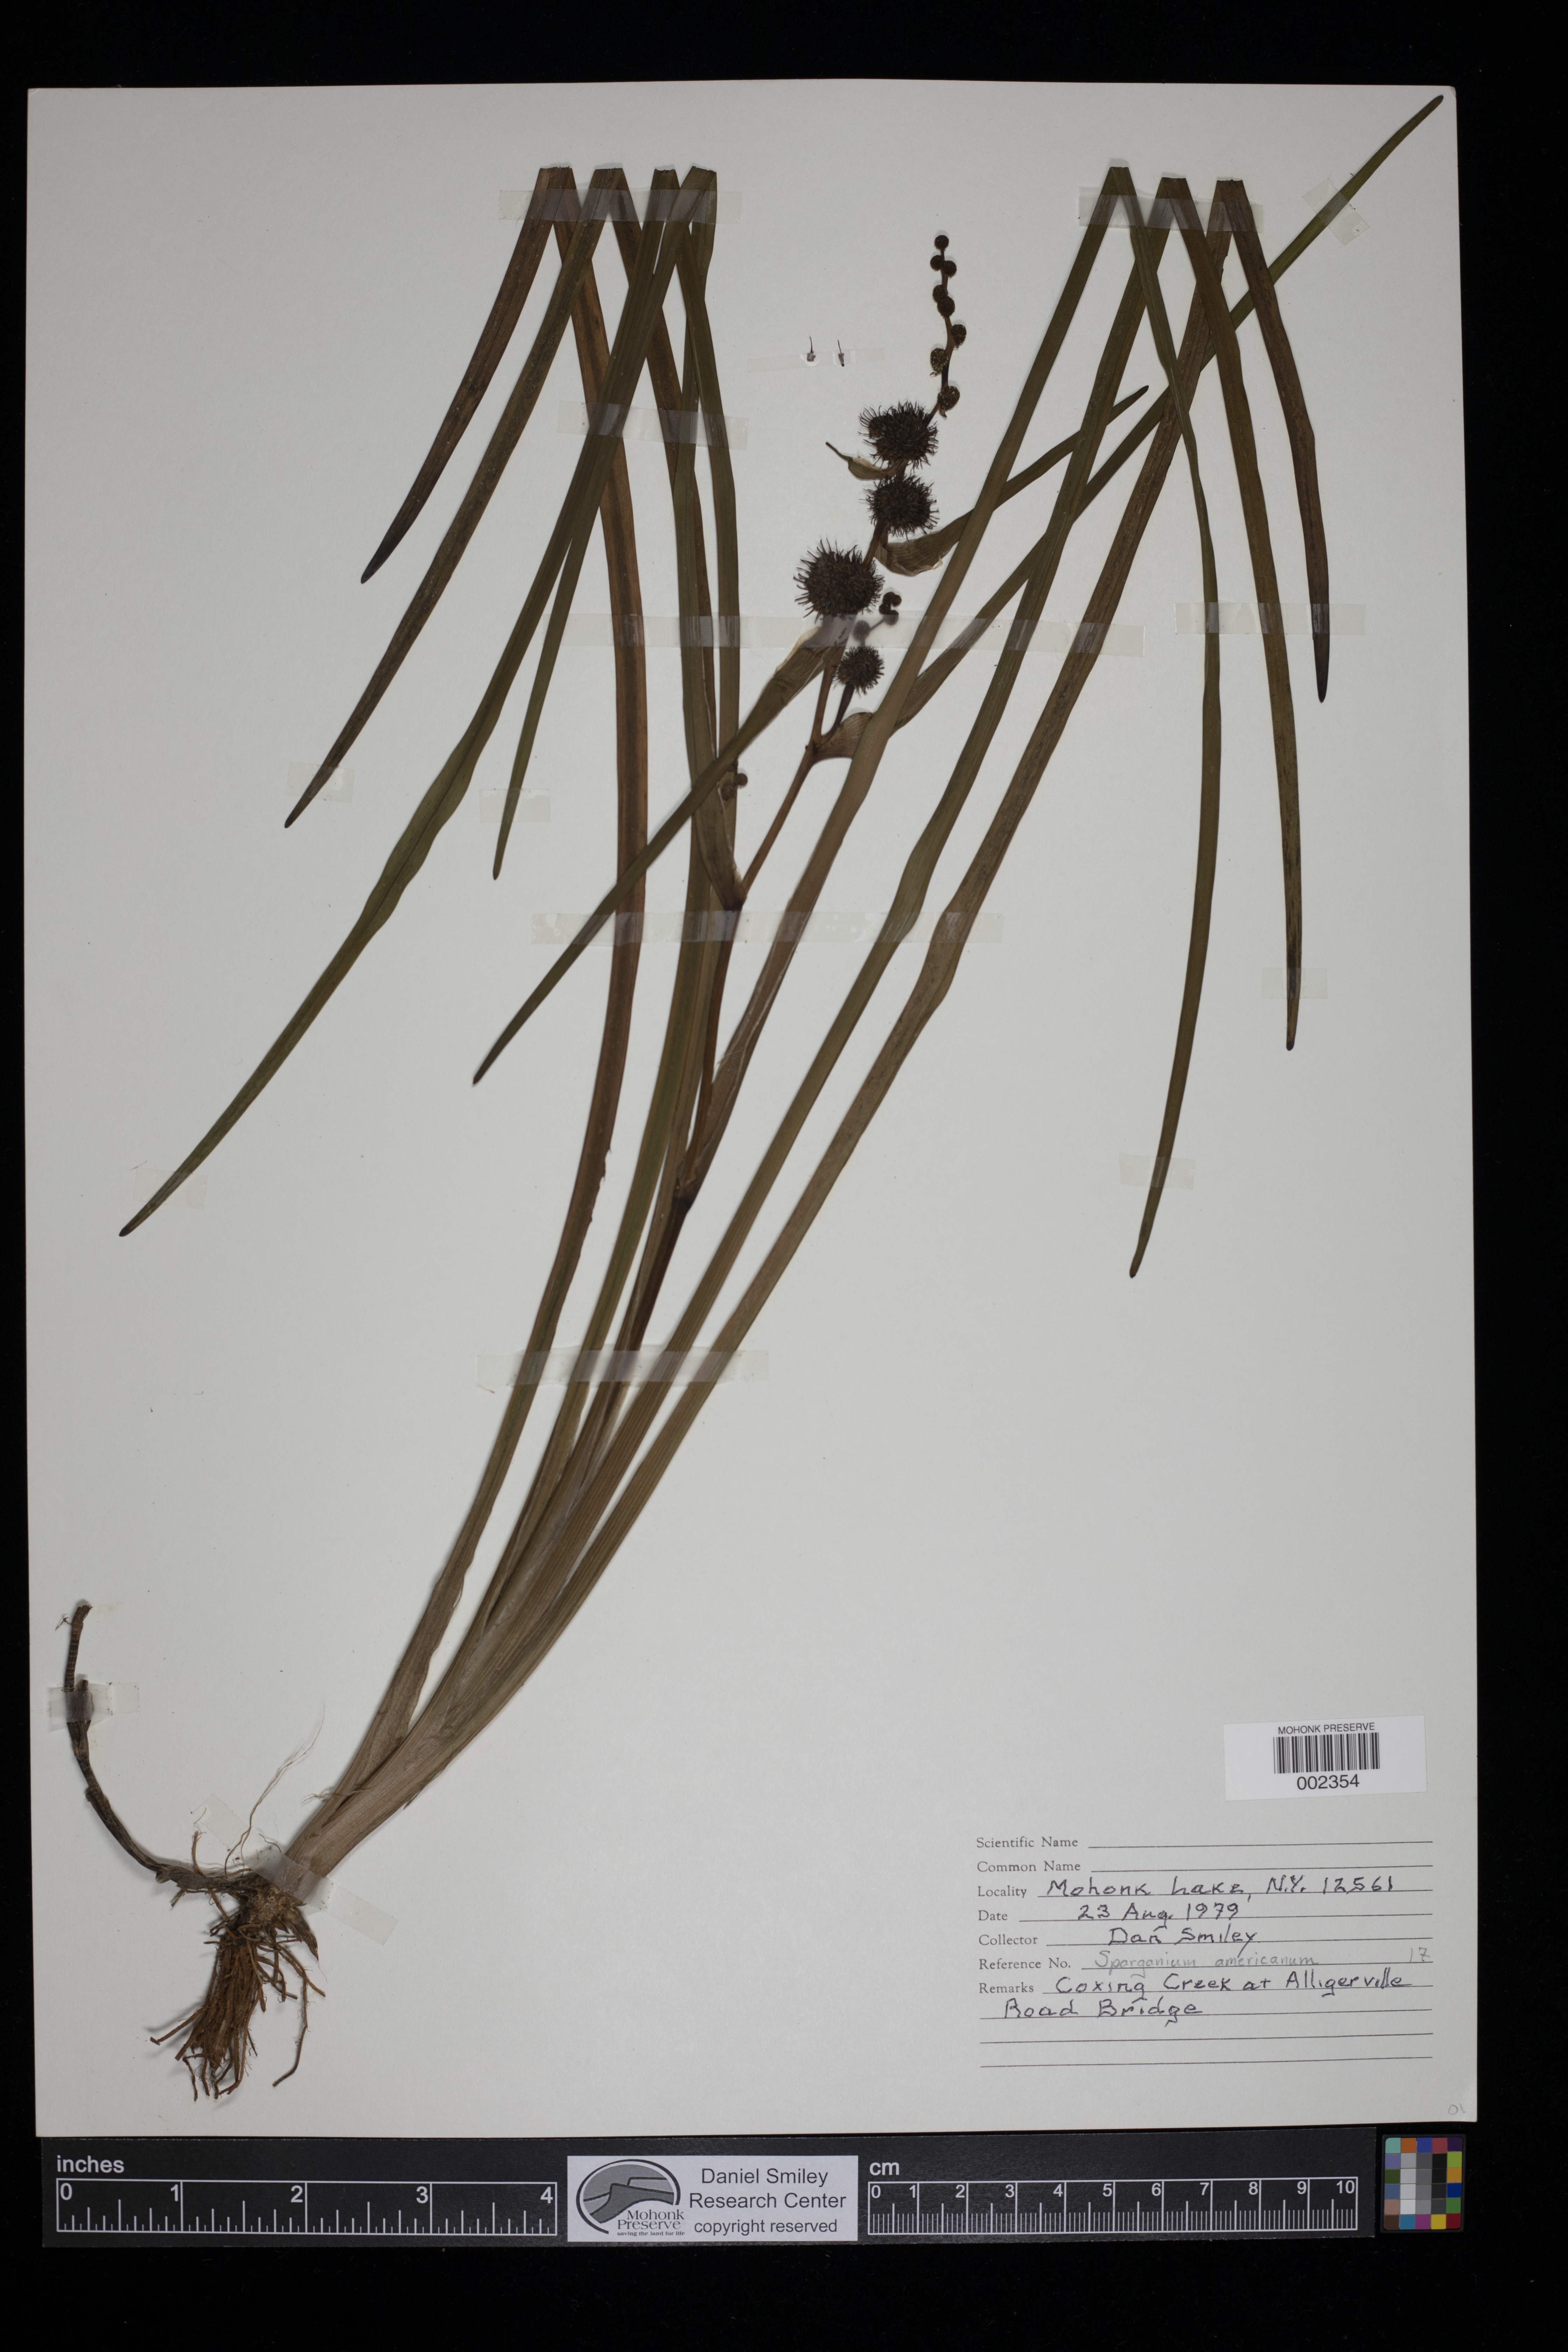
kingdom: Plantae
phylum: Tracheophyta
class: Liliopsida
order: Poales
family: Typhaceae
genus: Sparganium
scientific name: Sparganium americanum
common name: American burreed
